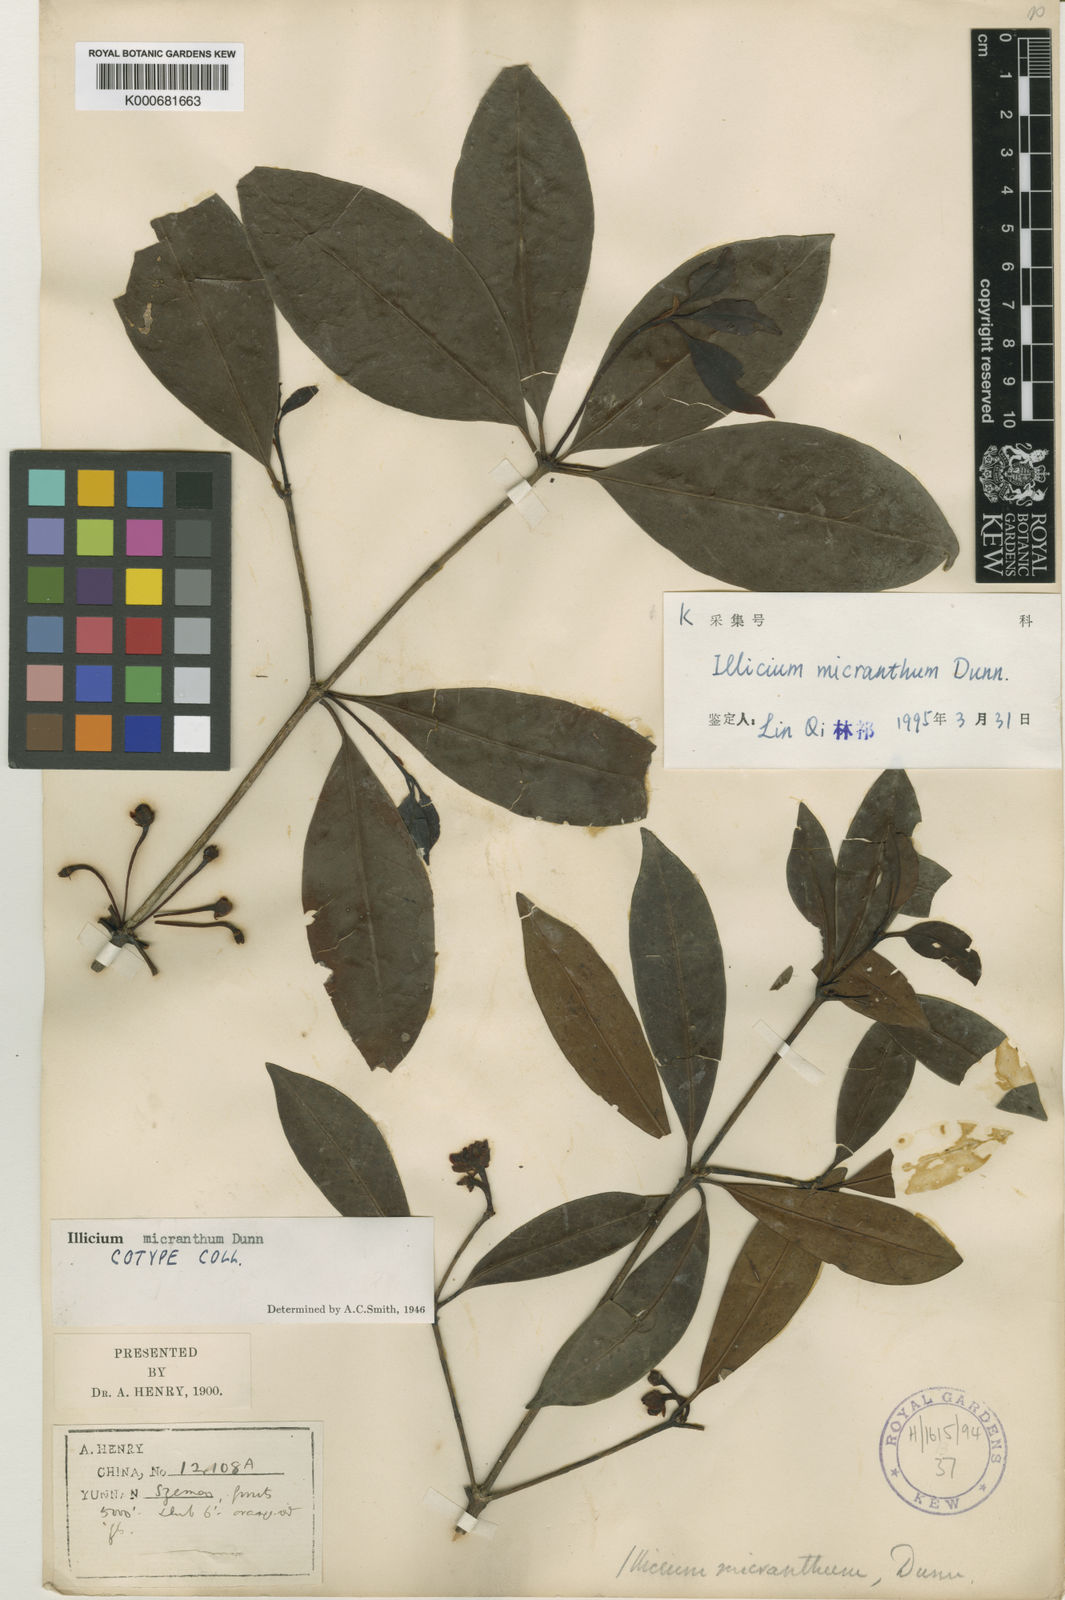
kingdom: Plantae
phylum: Tracheophyta
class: Magnoliopsida
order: Austrobaileyales
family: Schisandraceae
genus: Illicium
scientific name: Illicium micranthum
